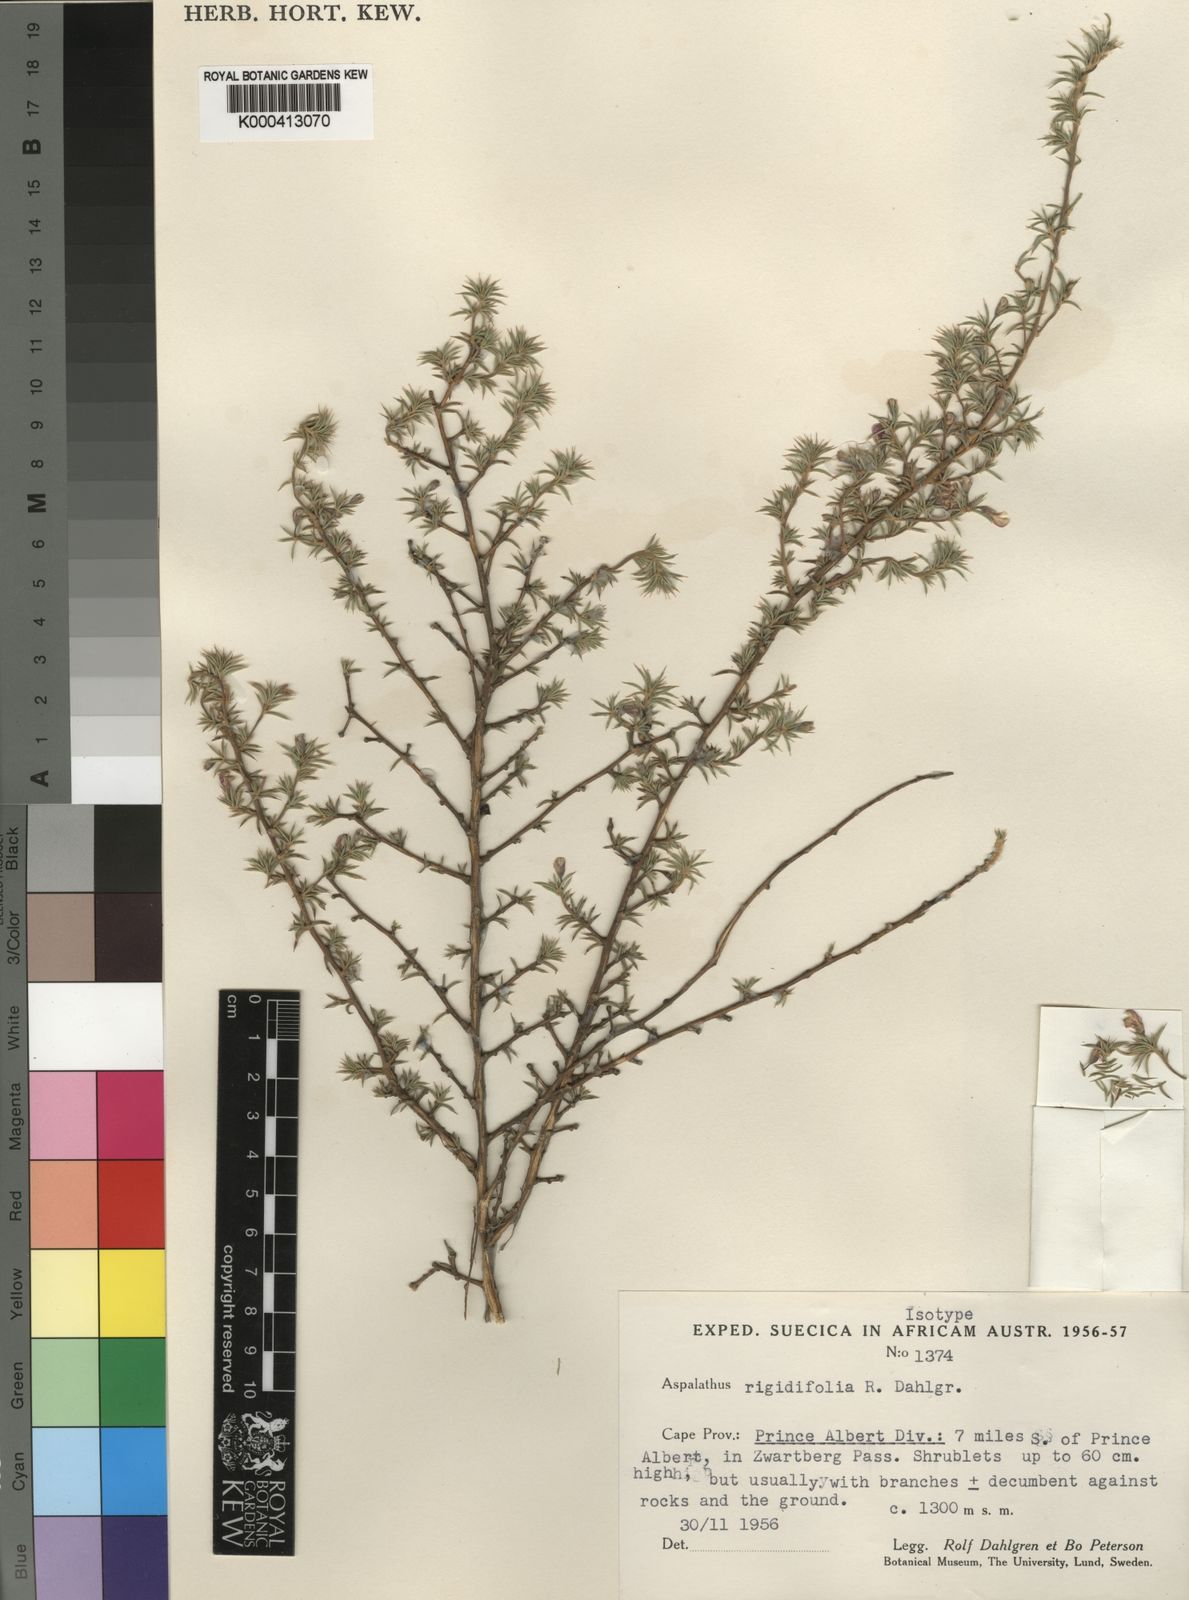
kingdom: Plantae
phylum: Tracheophyta
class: Magnoliopsida
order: Fabales
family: Fabaceae
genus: Aspalathus
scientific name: Aspalathus rigidifolia
